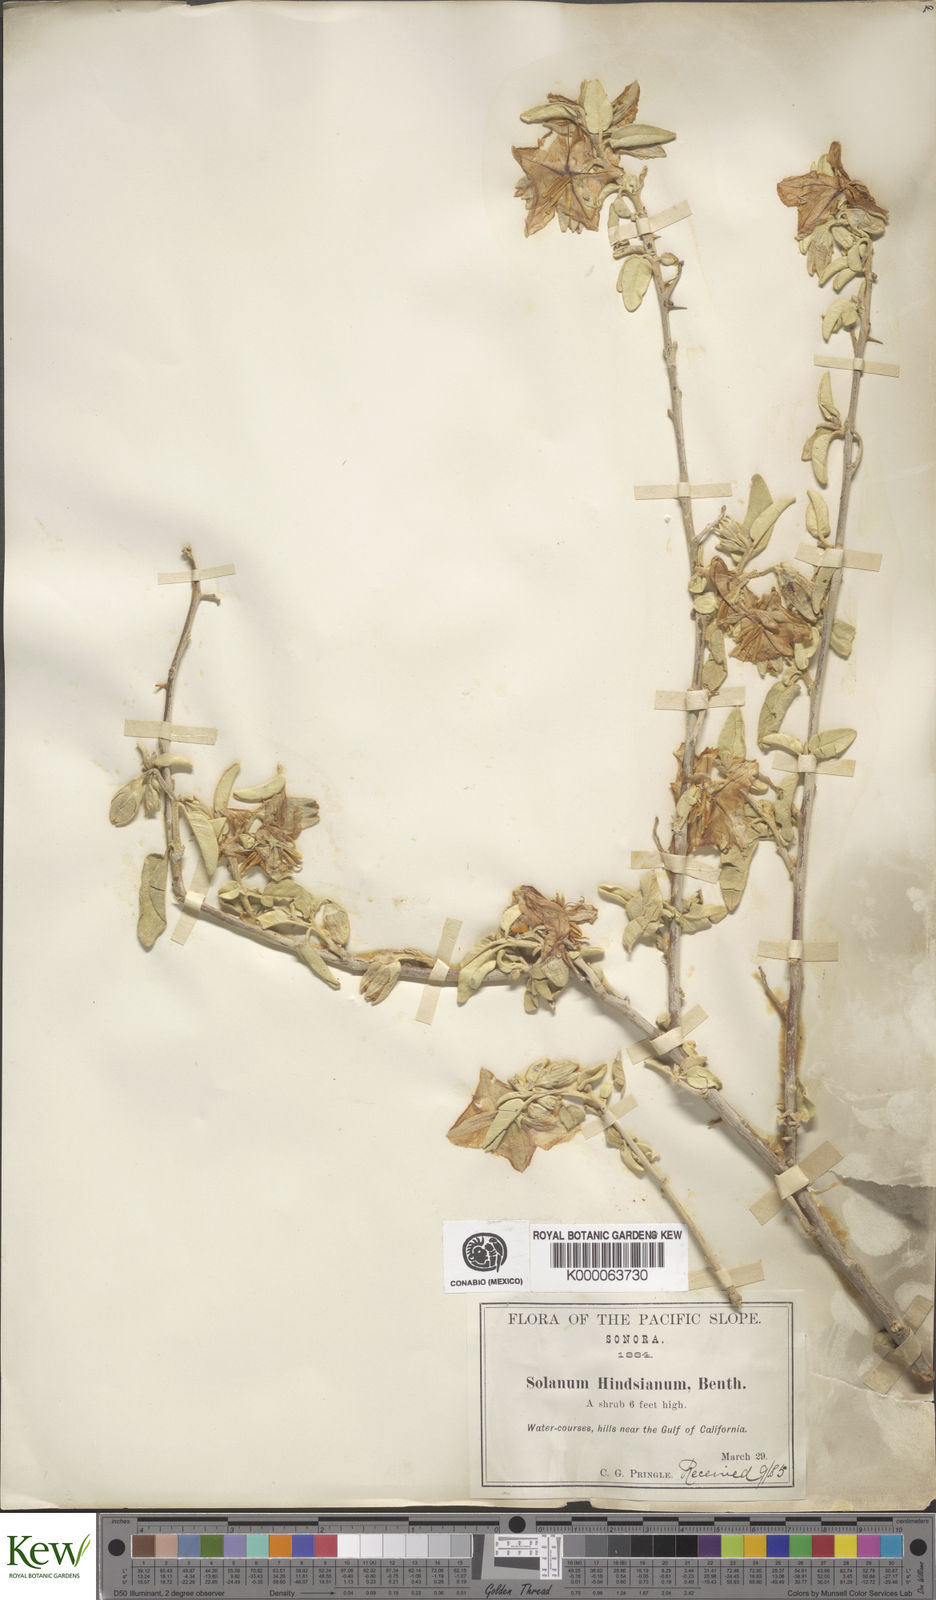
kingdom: Plantae
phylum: Tracheophyta
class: Magnoliopsida
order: Solanales
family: Solanaceae
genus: Solanum
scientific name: Solanum hindsianum
